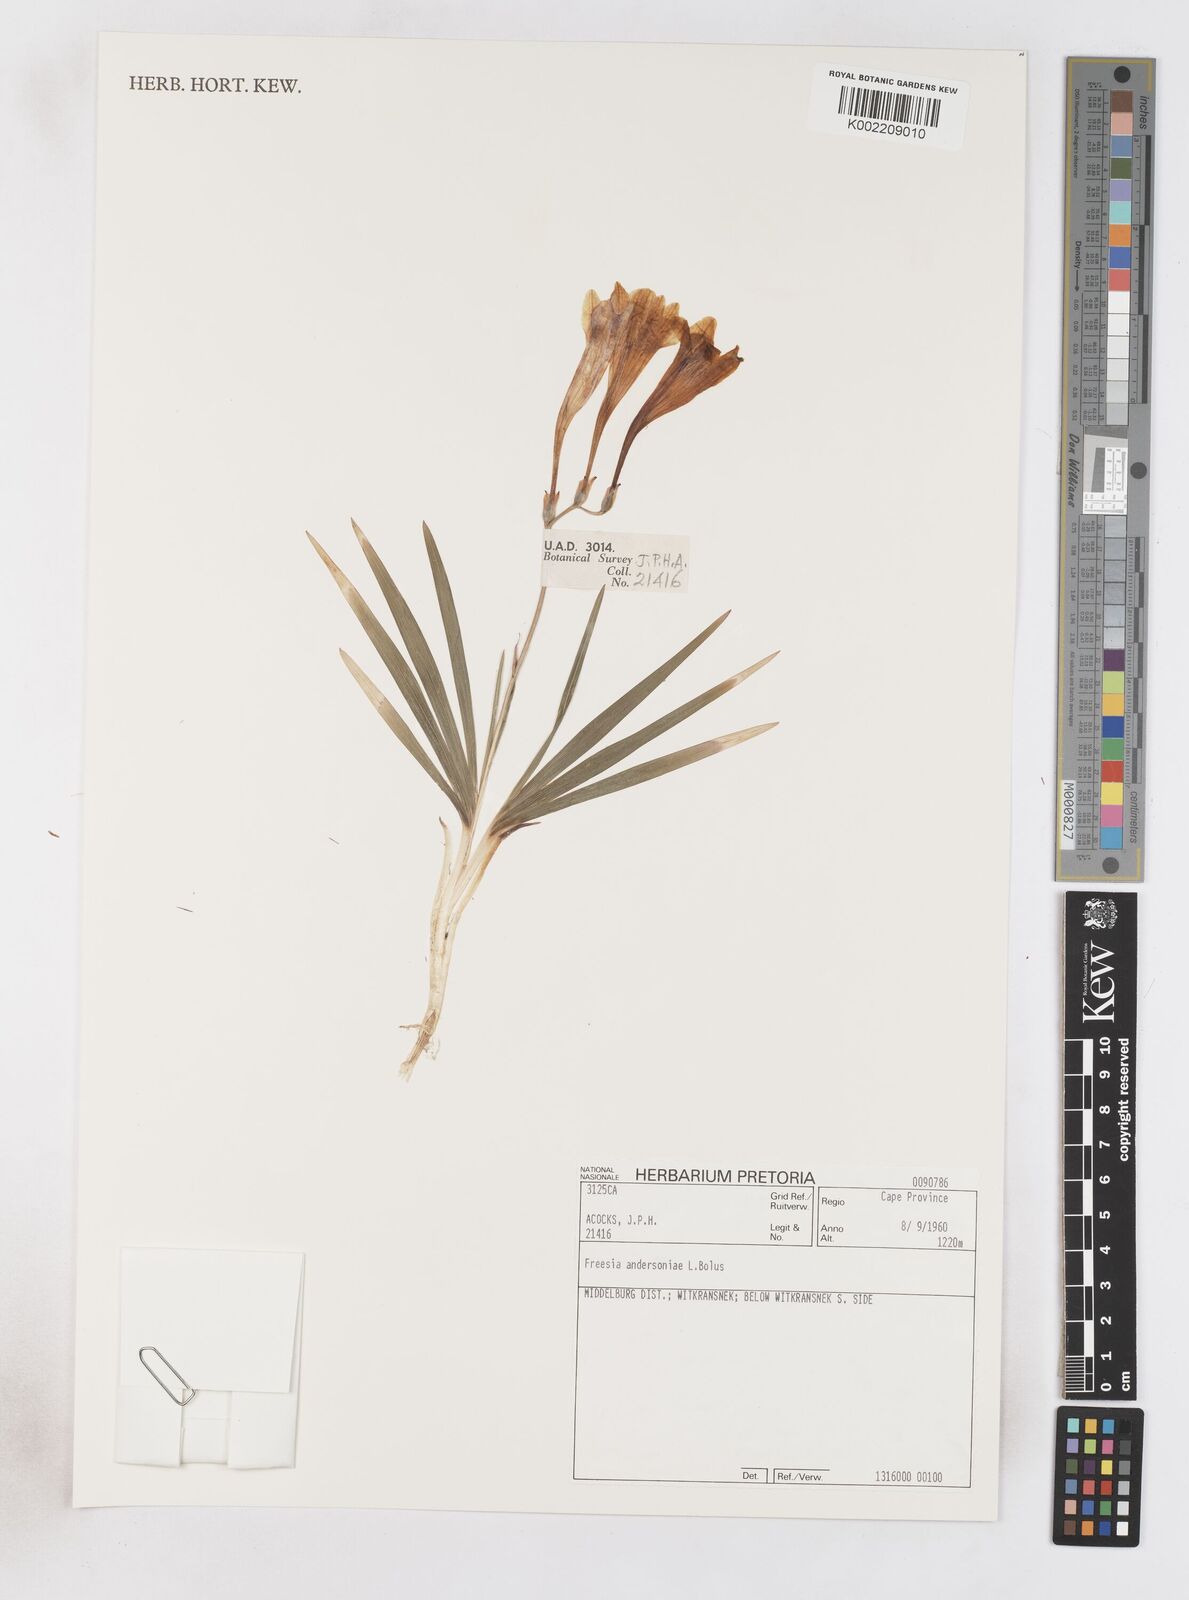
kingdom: Plantae
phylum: Tracheophyta
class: Liliopsida
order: Asparagales
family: Iridaceae
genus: Freesia
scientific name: Freesia andersoniae
